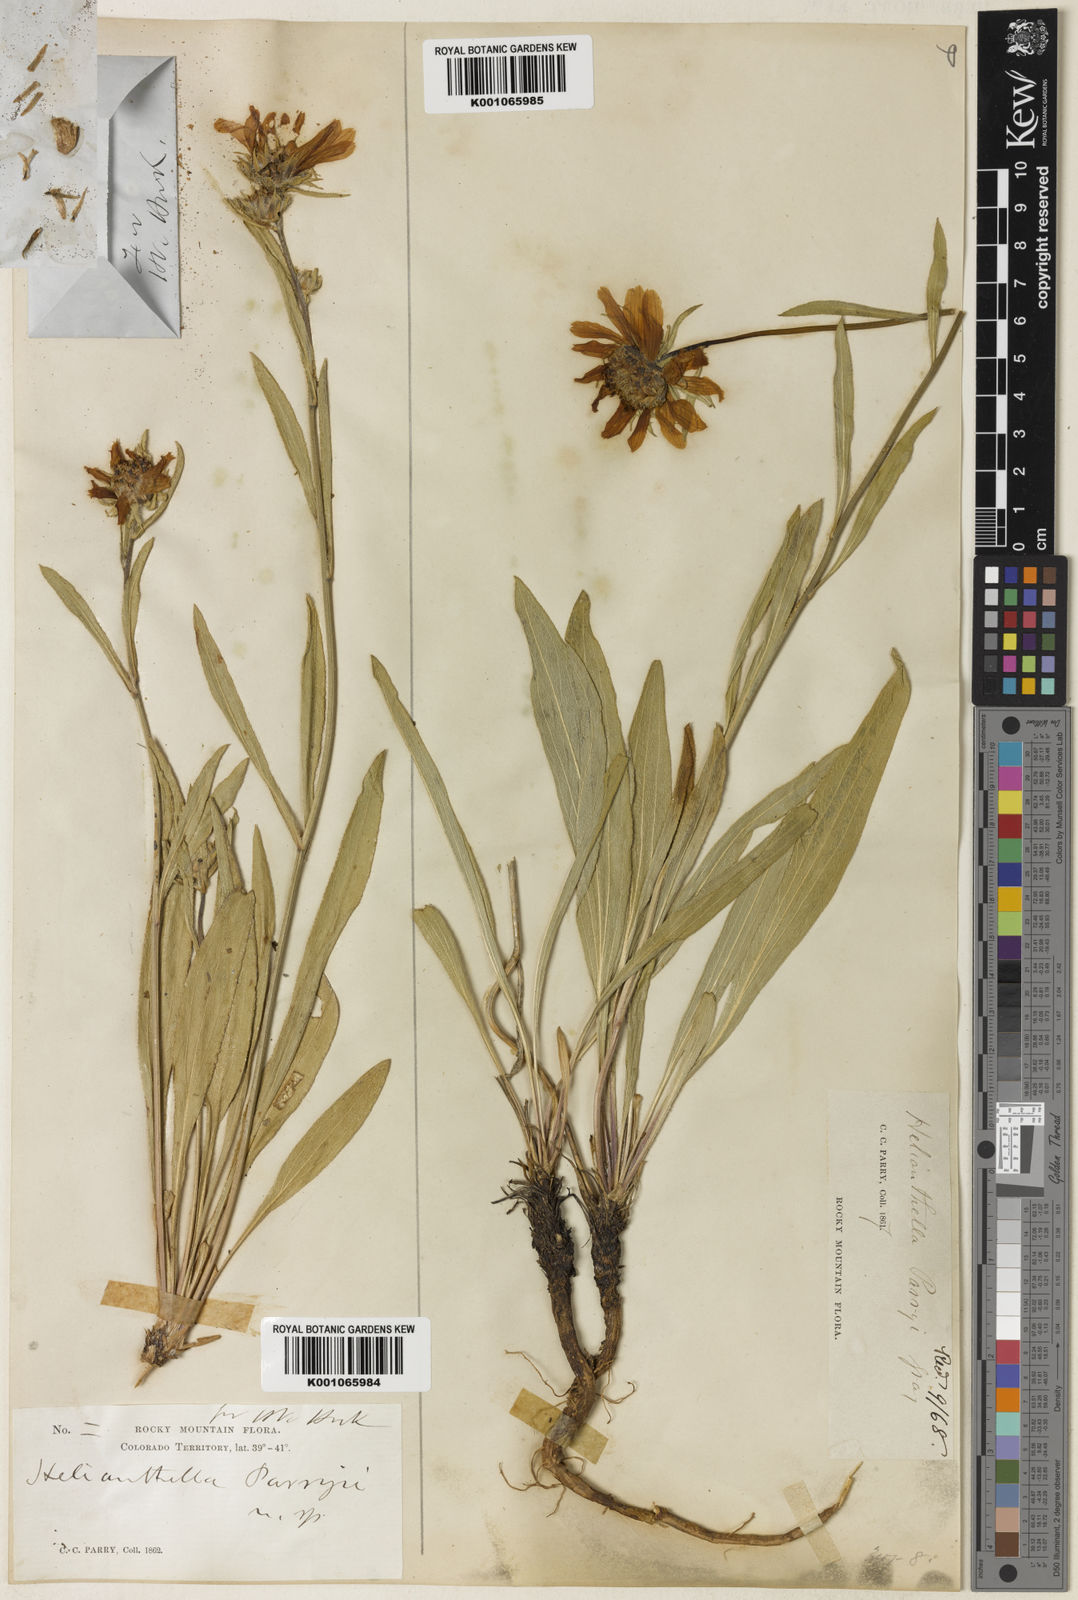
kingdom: Plantae
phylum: Tracheophyta
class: Magnoliopsida
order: Asterales
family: Asteraceae
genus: Helianthella
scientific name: Helianthella parryi
